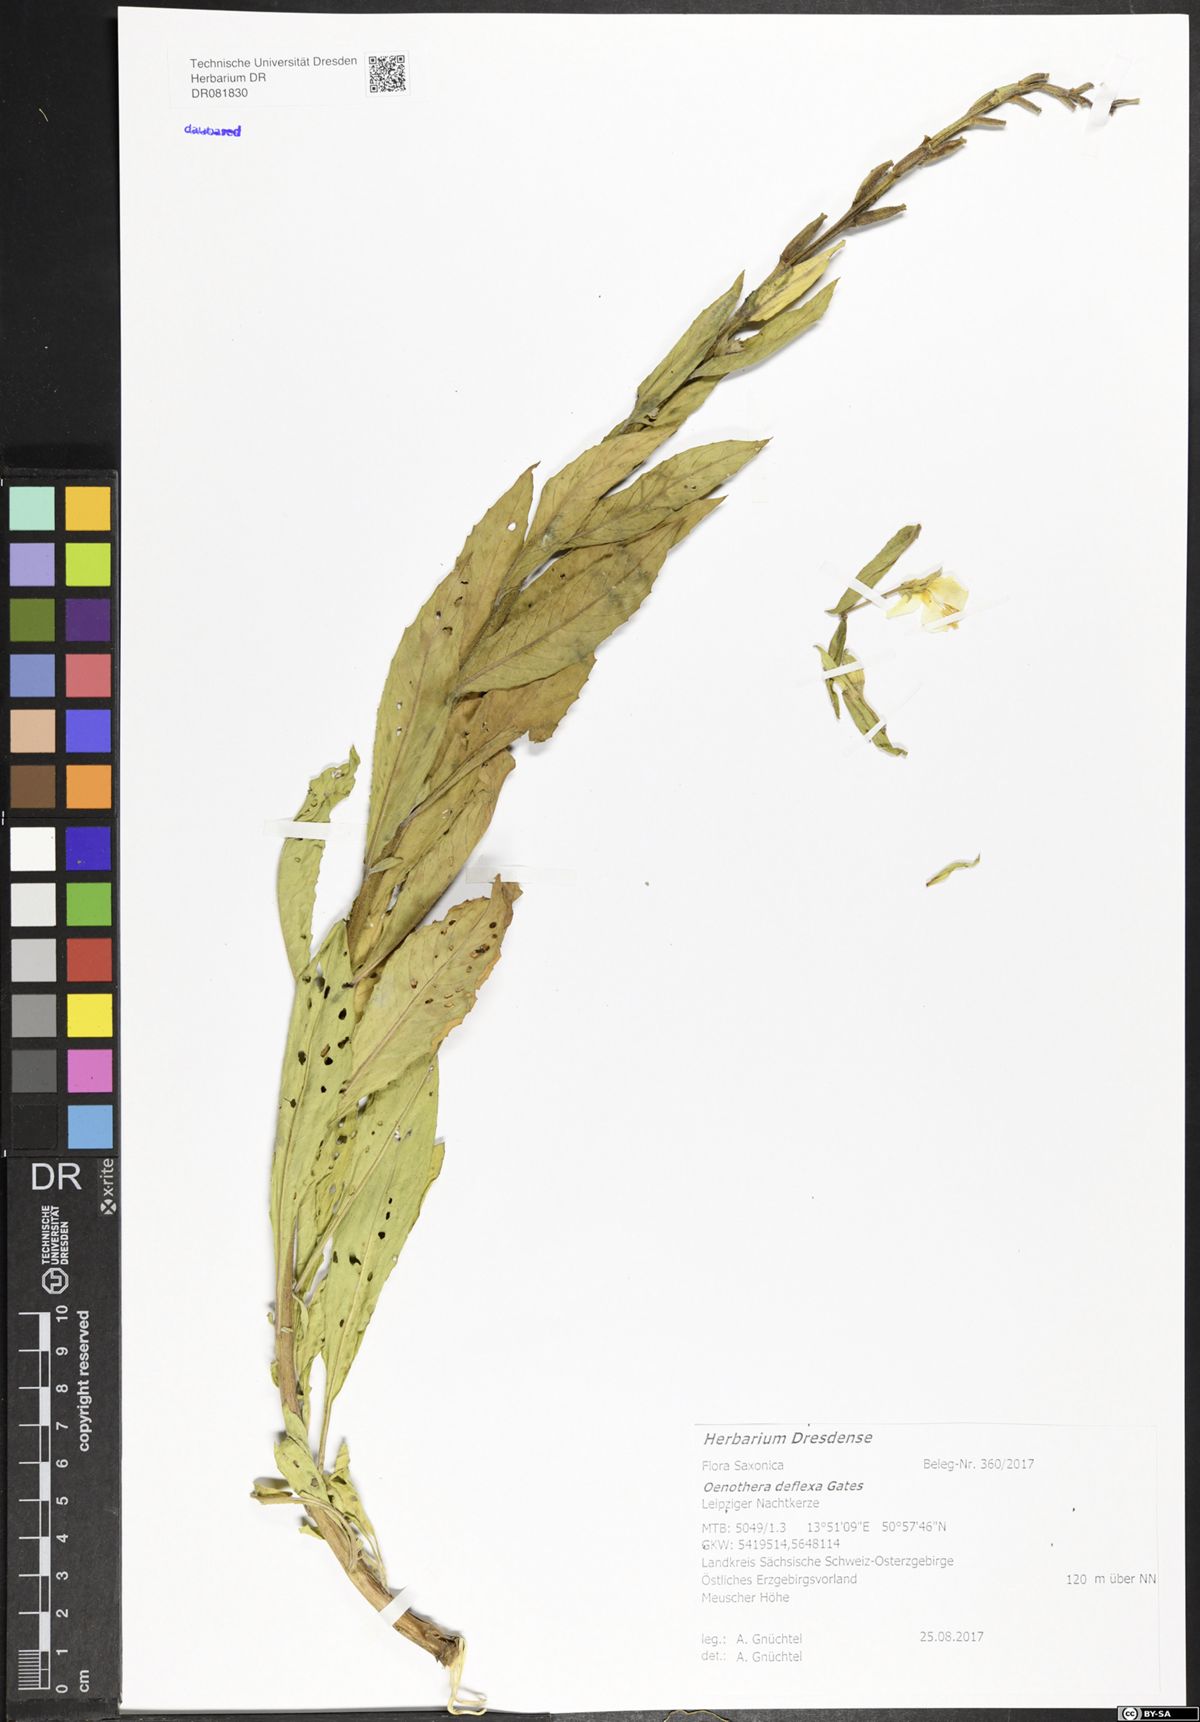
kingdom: Plantae
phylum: Tracheophyta
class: Magnoliopsida
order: Myrtales
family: Onagraceae
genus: Oenothera
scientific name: Oenothera parviflora
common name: Least evening-primrose
